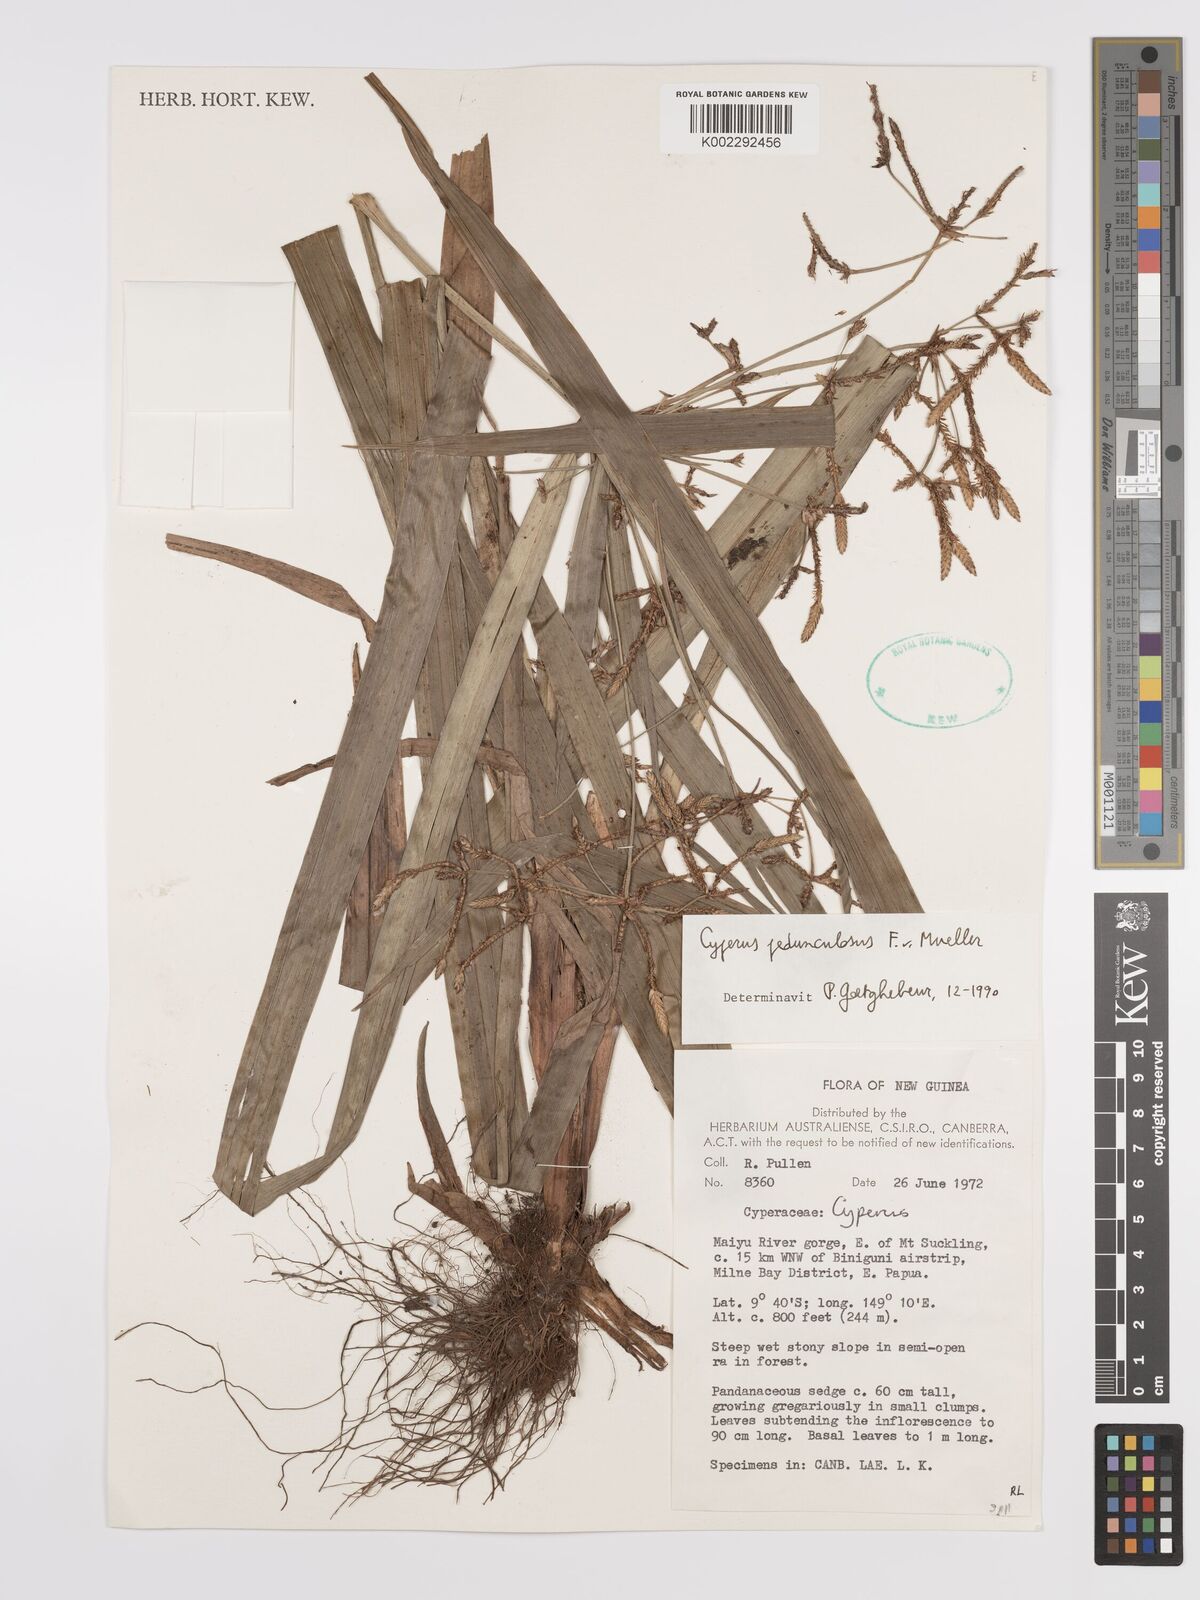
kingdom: Plantae
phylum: Tracheophyta
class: Liliopsida
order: Poales
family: Cyperaceae
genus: Cyperus
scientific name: Cyperus pedunculosus
